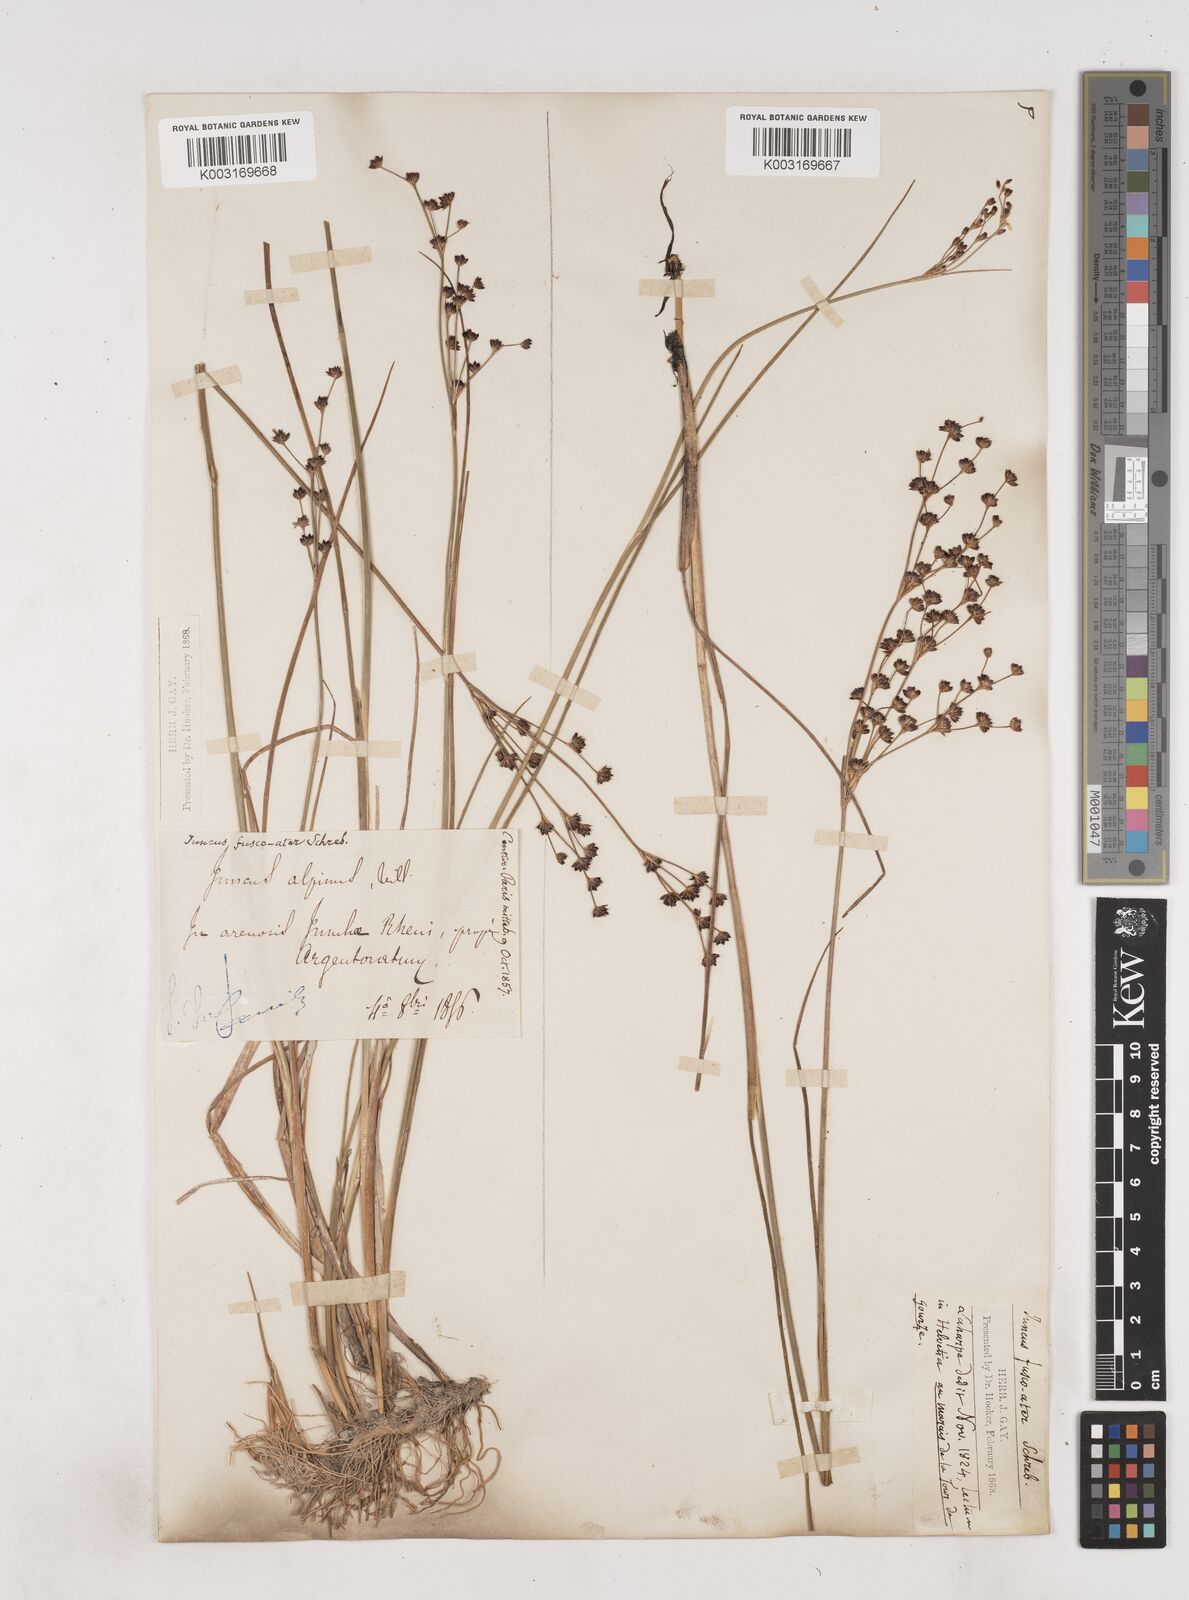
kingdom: Plantae
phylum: Tracheophyta
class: Liliopsida
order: Poales
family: Juncaceae
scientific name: Juncaceae
